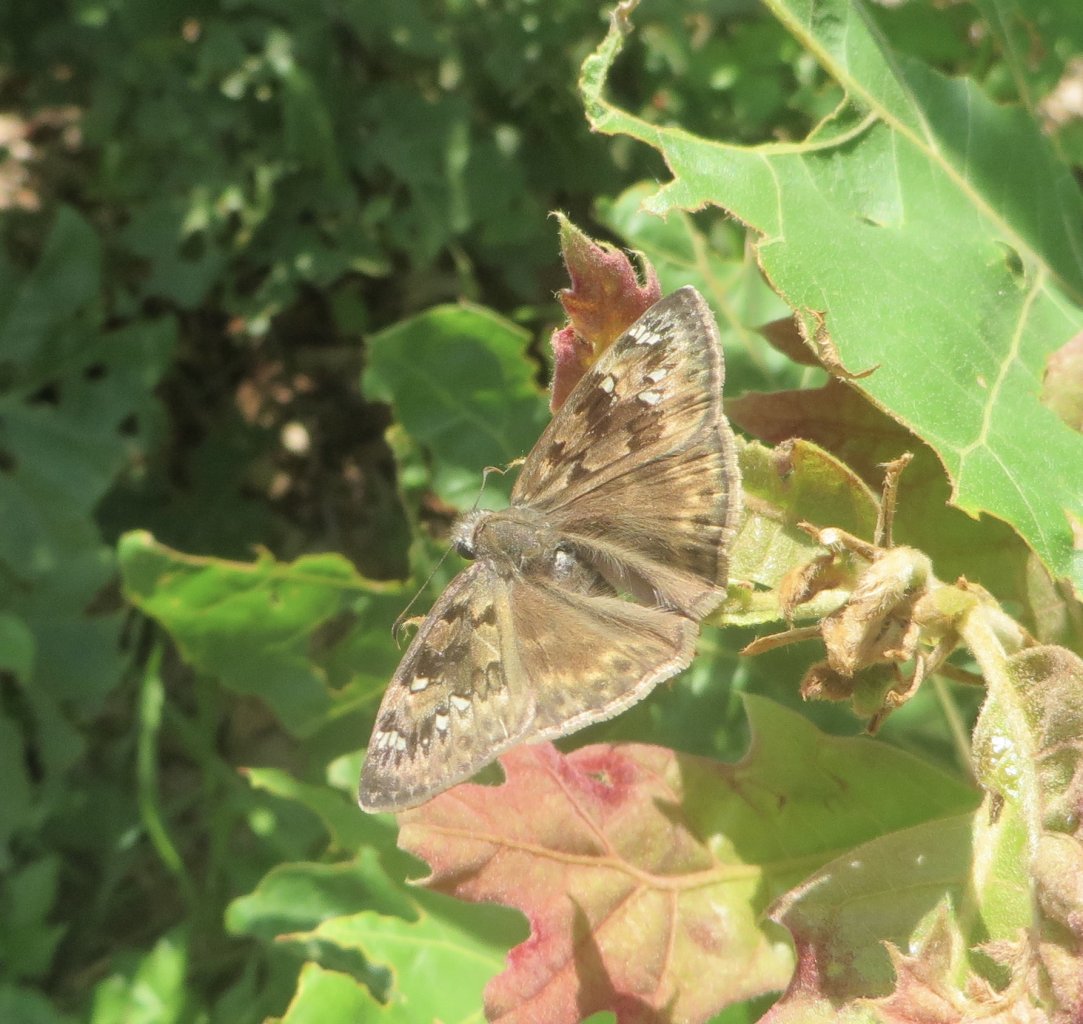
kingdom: Animalia
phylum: Arthropoda
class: Insecta
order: Lepidoptera
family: Hesperiidae
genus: Gesta
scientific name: Gesta
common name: Horace's Duskywing
